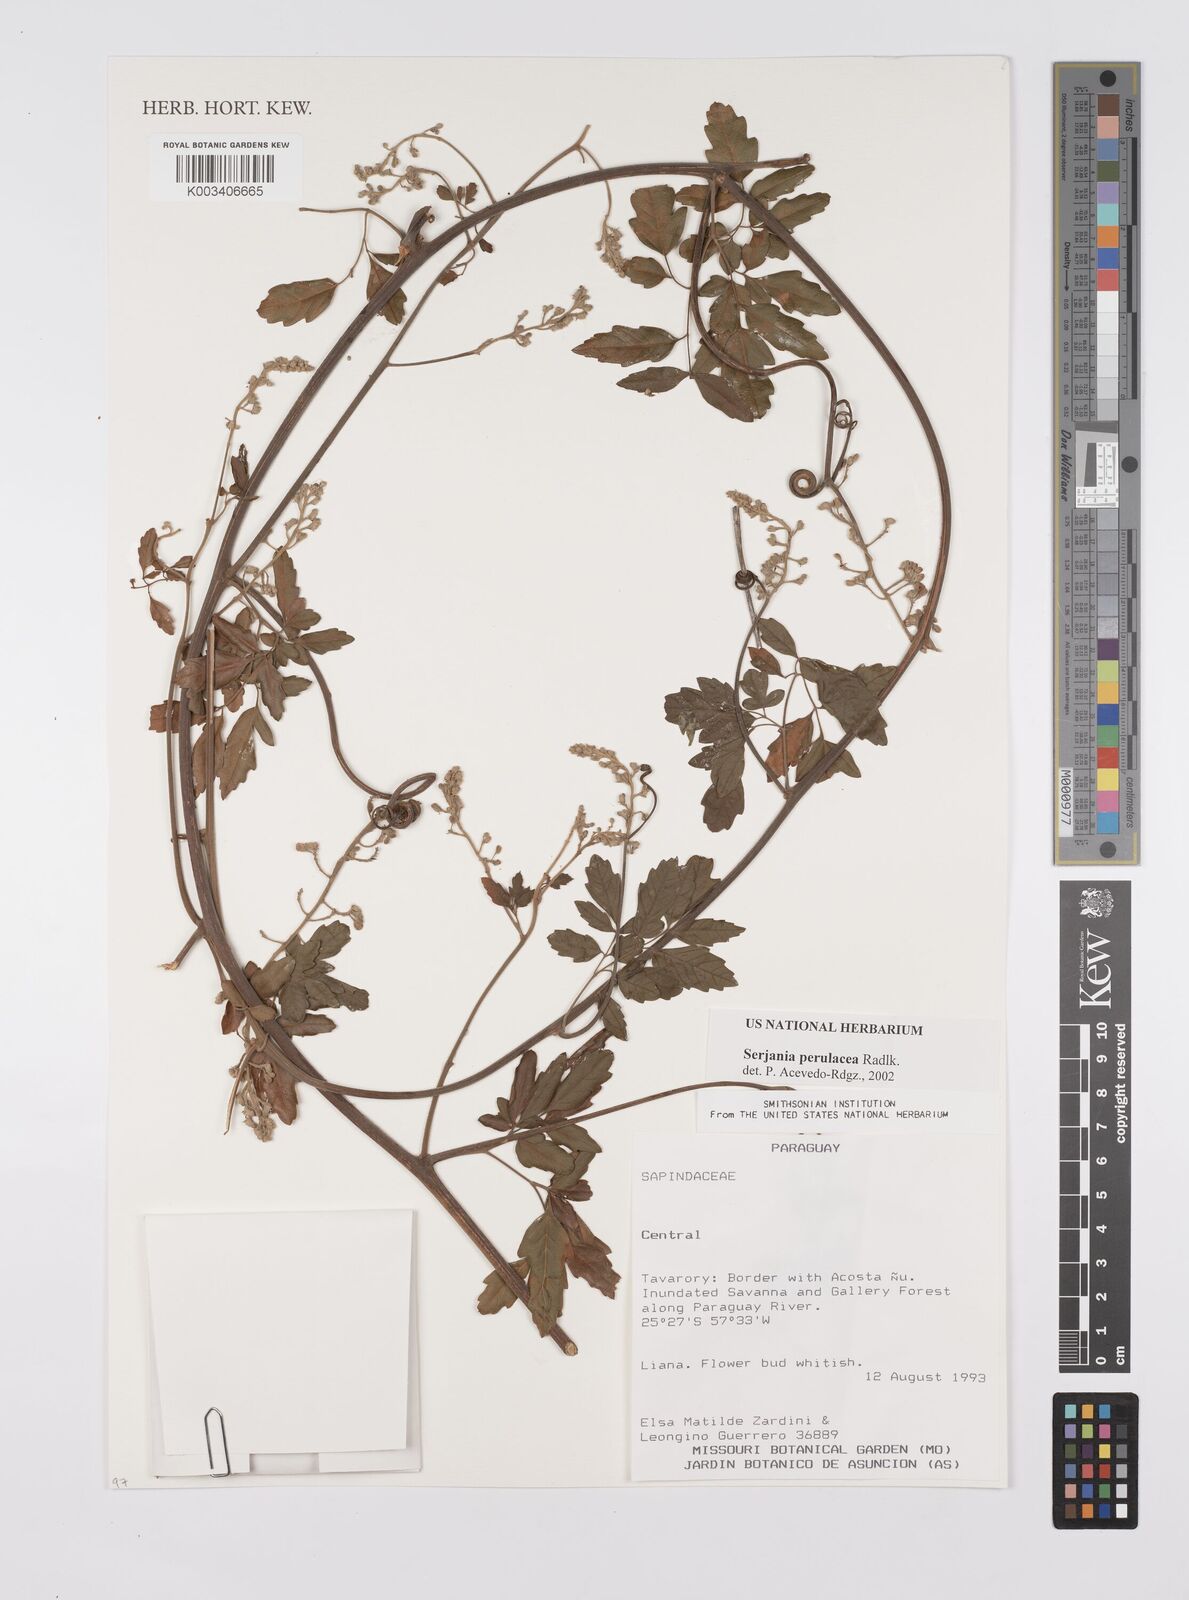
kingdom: Plantae
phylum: Tracheophyta
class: Magnoliopsida
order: Sapindales
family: Sapindaceae
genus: Serjania
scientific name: Serjania perulacea
